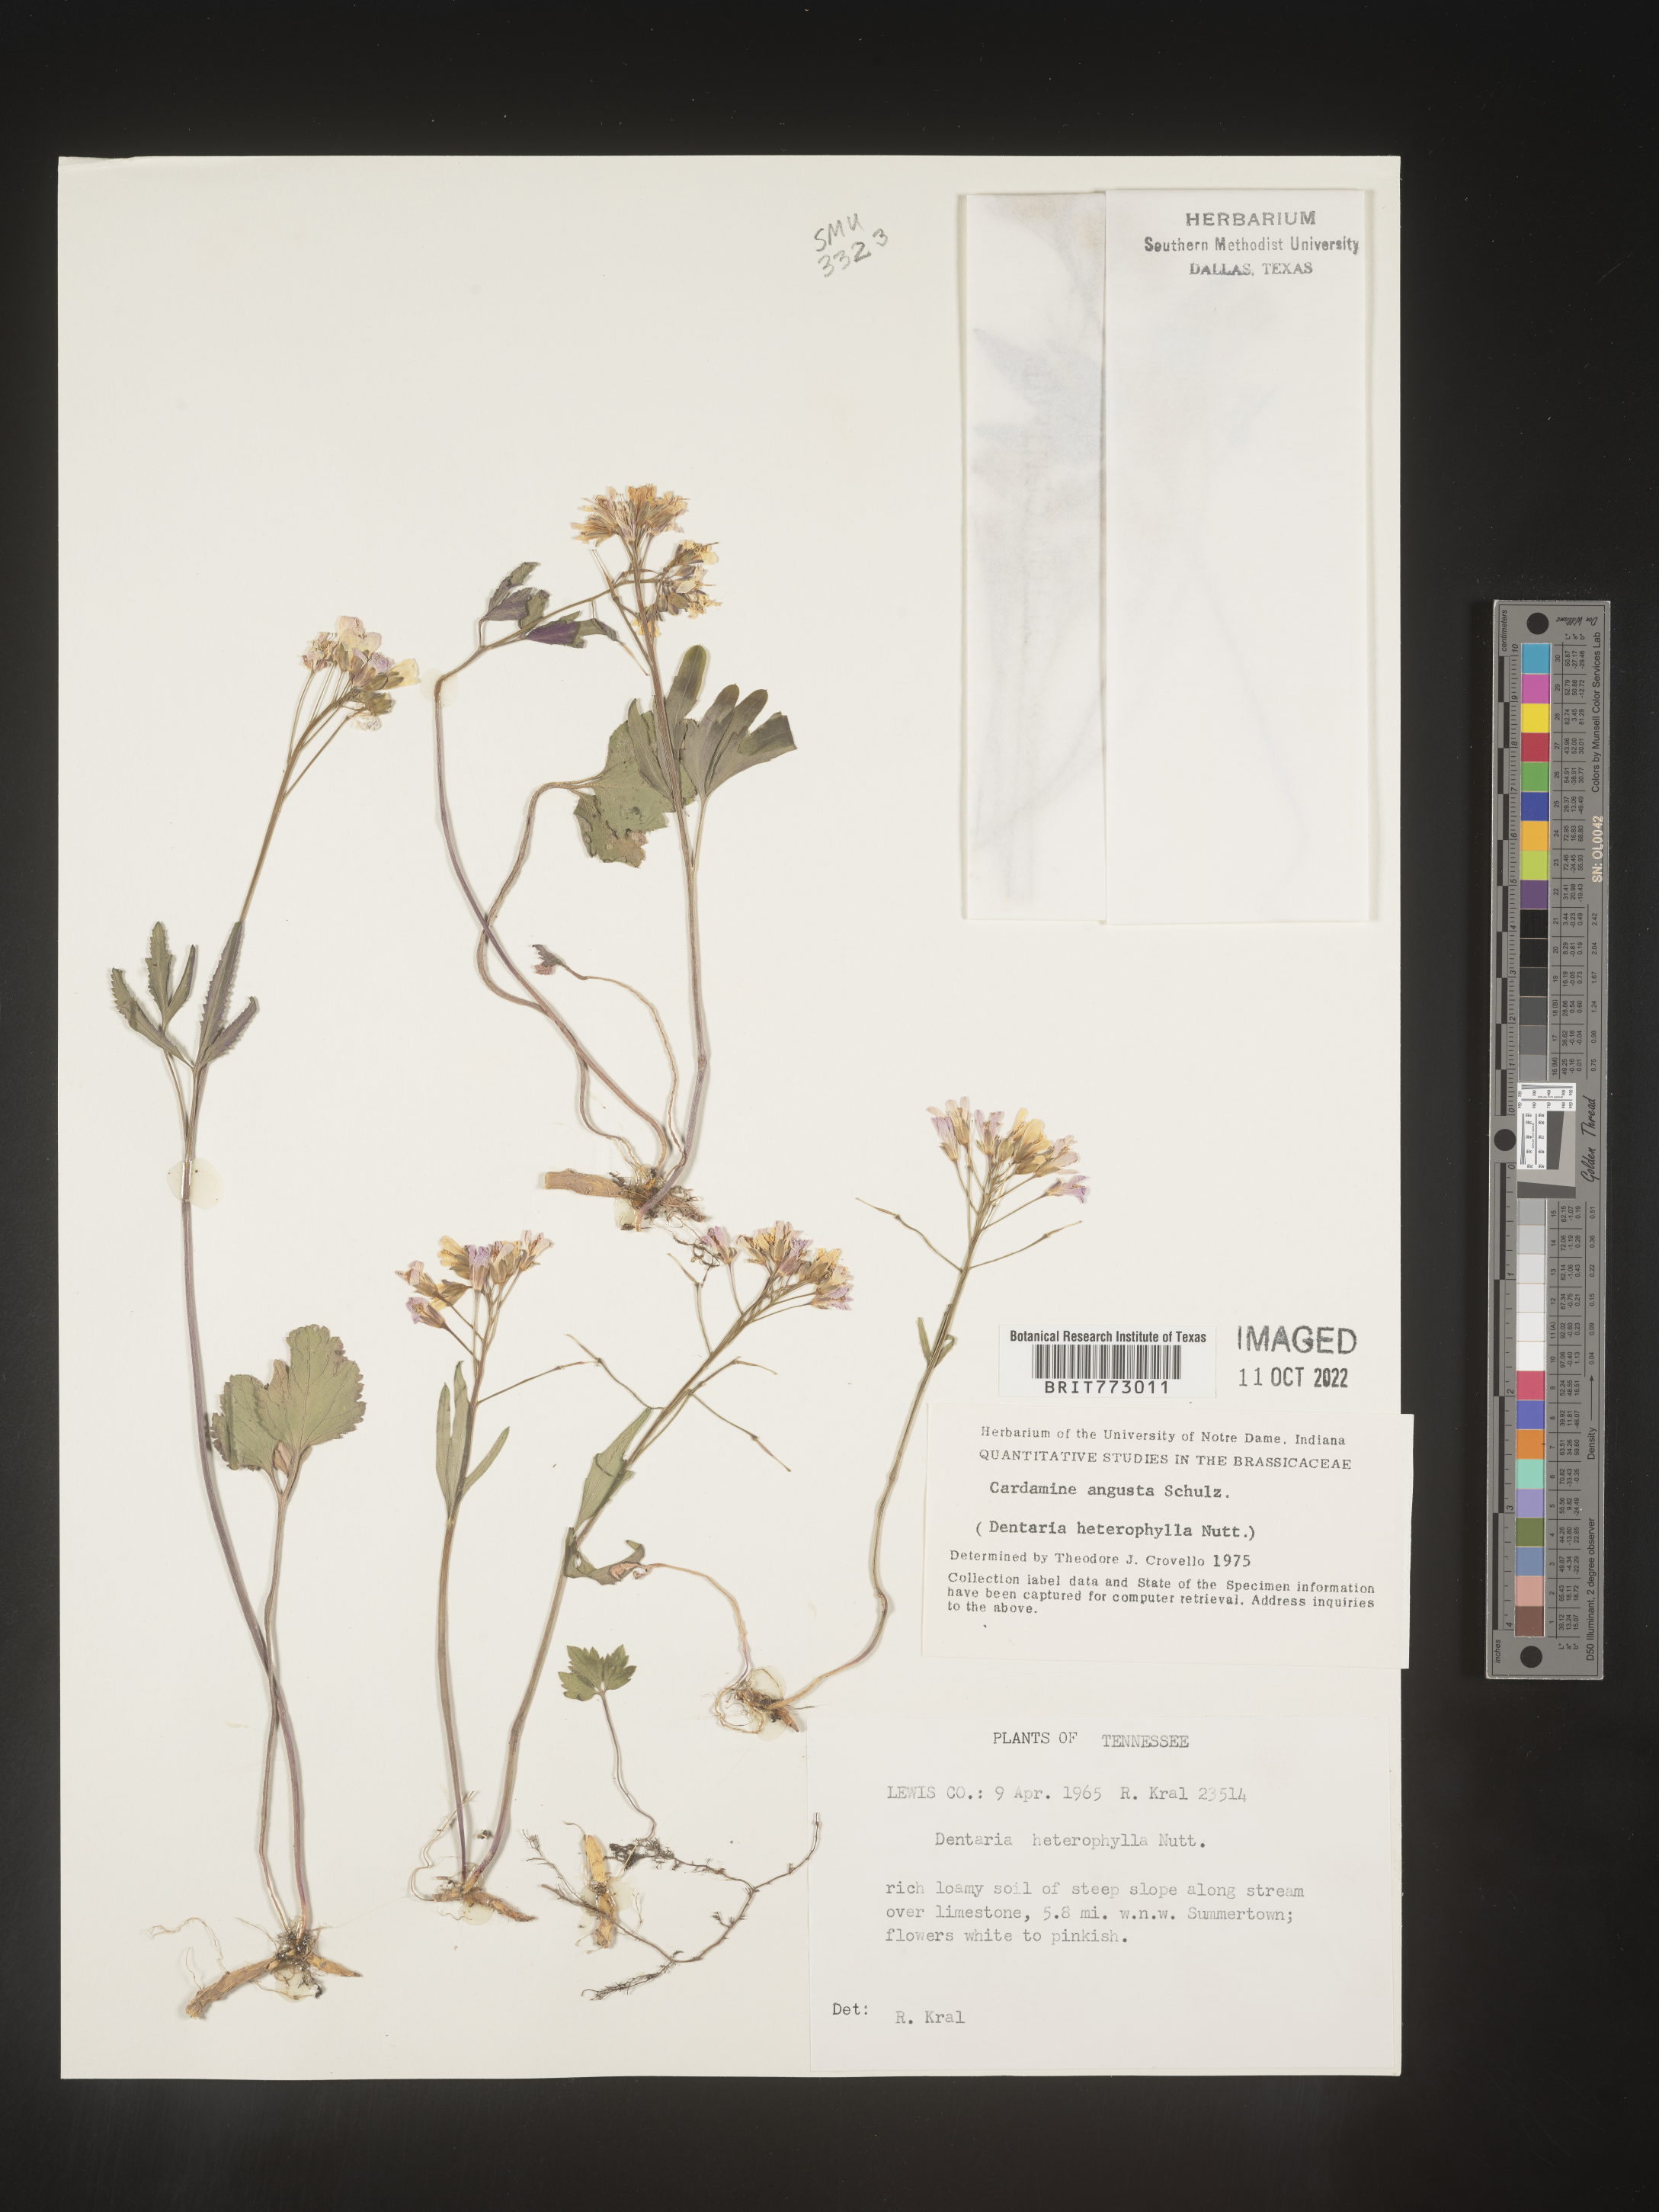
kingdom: Plantae
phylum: Tracheophyta
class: Magnoliopsida
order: Brassicales
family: Brassicaceae
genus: Cardamine
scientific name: Cardamine angustata
